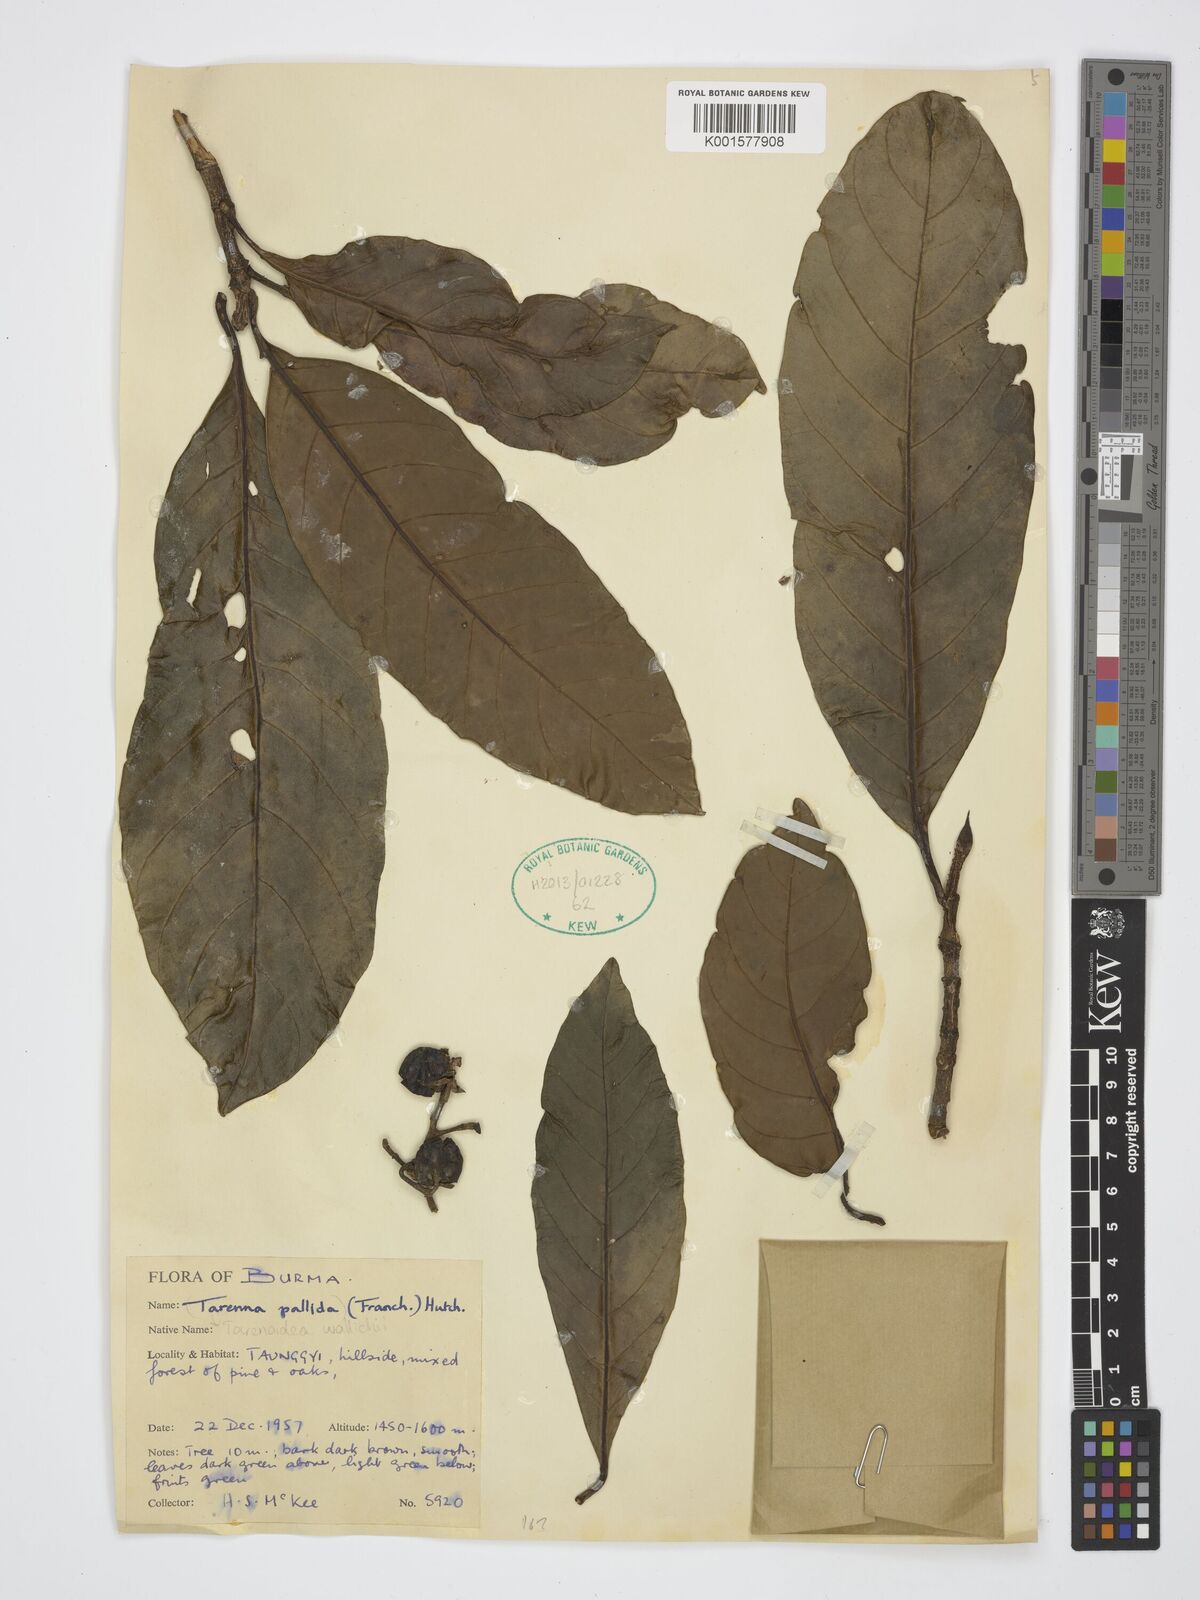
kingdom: Plantae
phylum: Tracheophyta
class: Magnoliopsida
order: Gentianales
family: Rubiaceae
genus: Tarennoidea
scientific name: Tarennoidea wallichii
